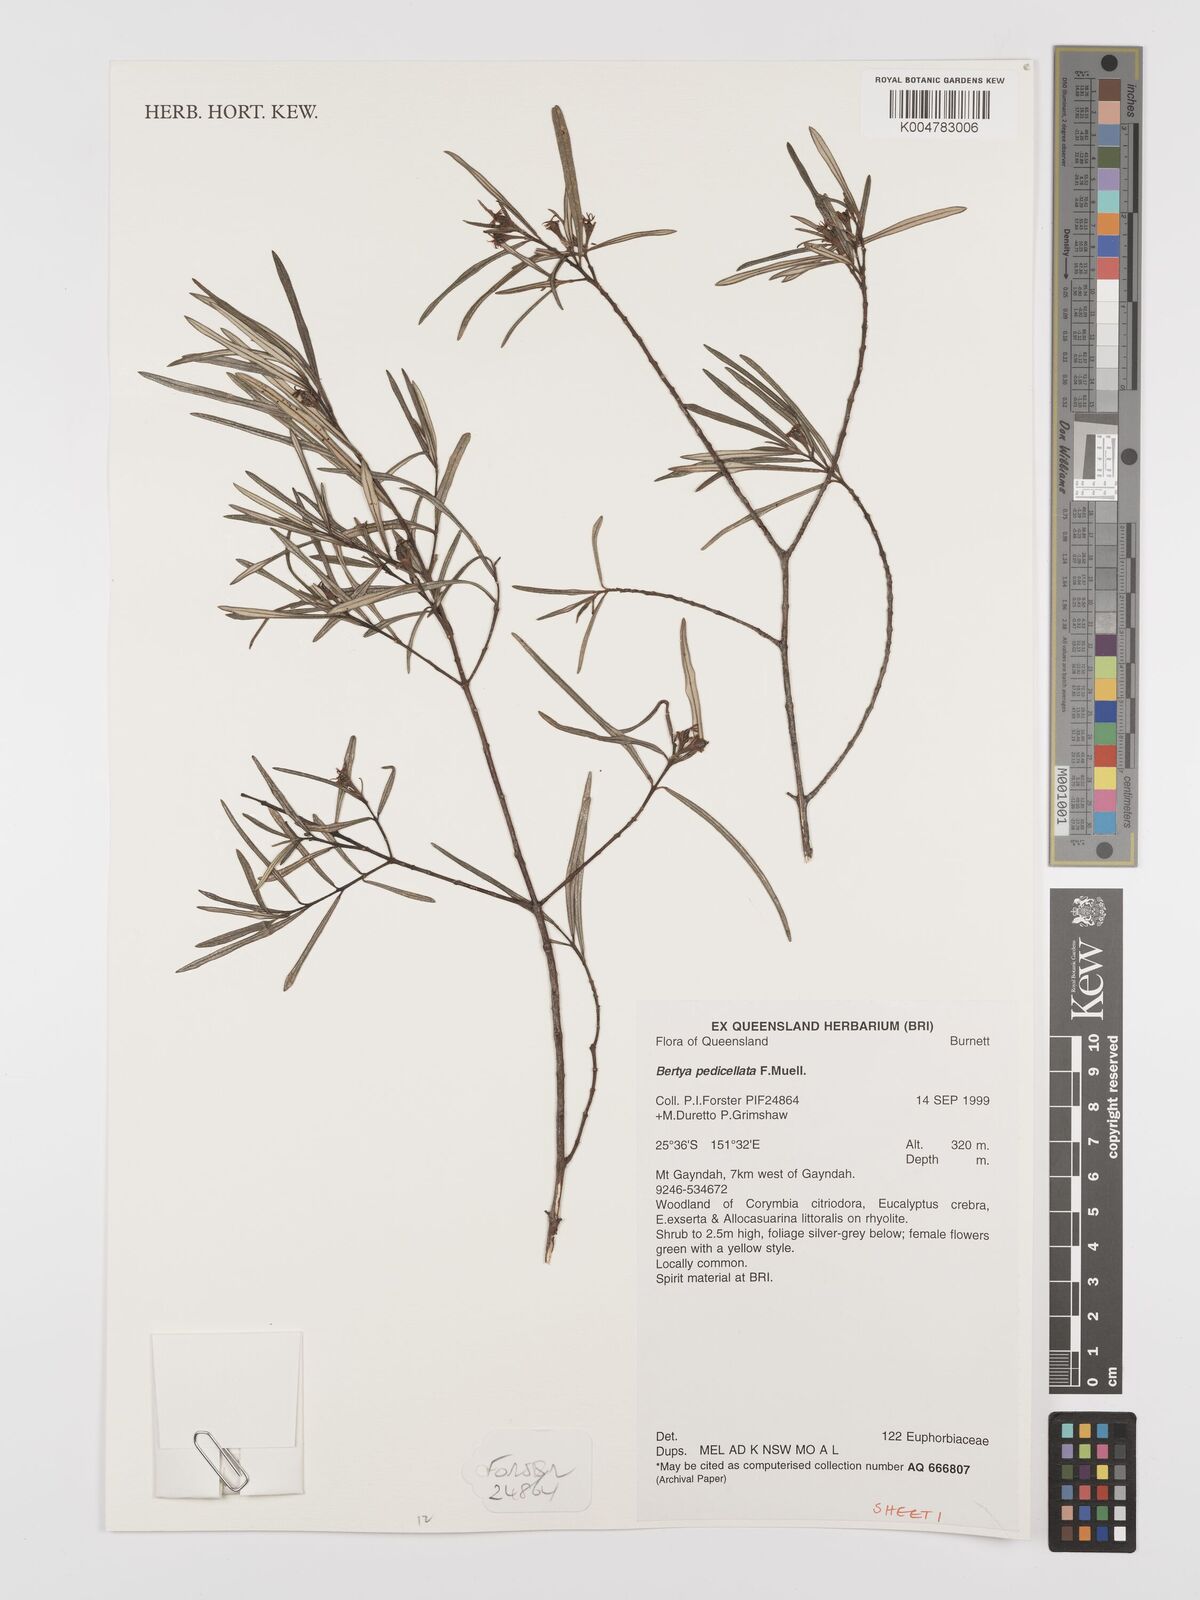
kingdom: Plantae
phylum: Tracheophyta
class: Magnoliopsida
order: Malpighiales
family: Euphorbiaceae
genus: Bertya
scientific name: Bertya pedicellata
